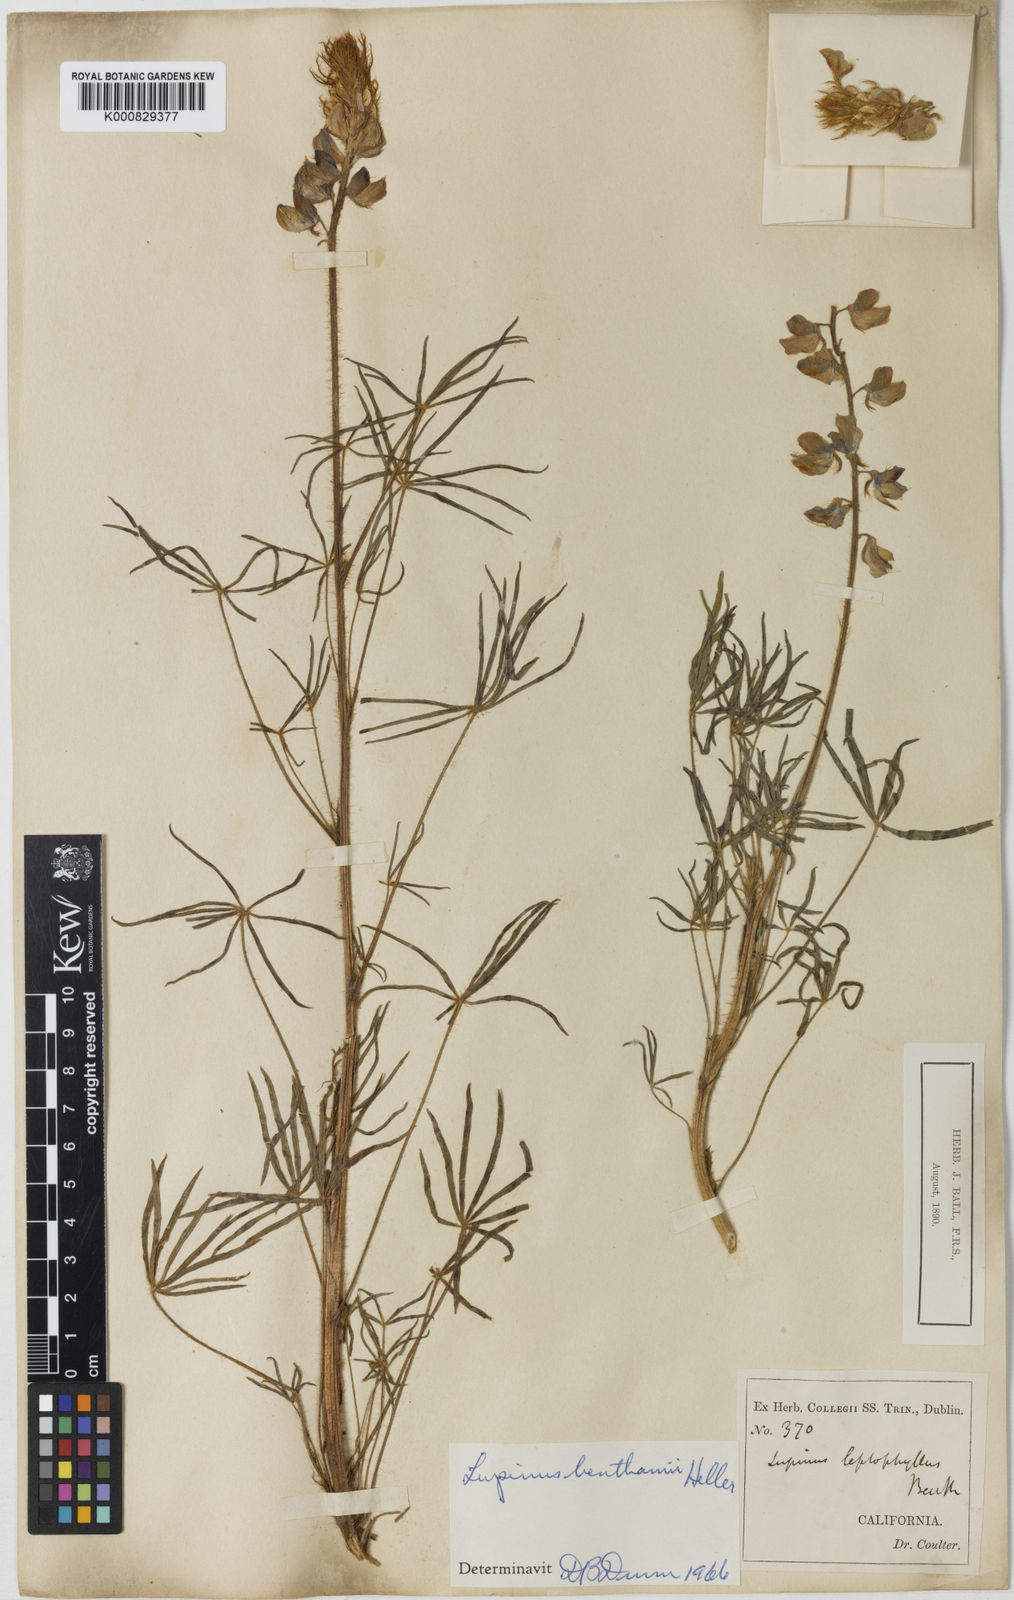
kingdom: Plantae
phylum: Tracheophyta
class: Magnoliopsida
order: Fabales
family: Fabaceae
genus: Lupinus
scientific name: Lupinus benthamii
